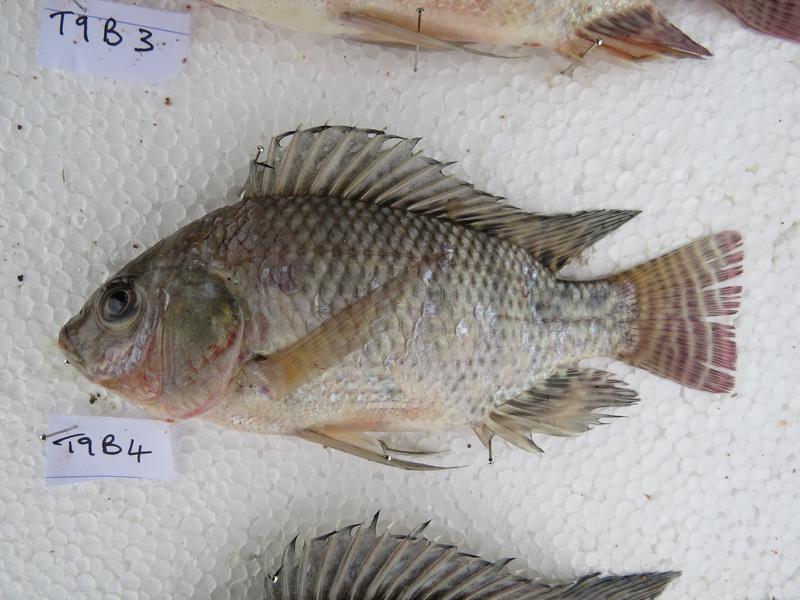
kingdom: Animalia
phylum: Chordata
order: Perciformes
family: Cichlidae
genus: Oreochromis
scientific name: Oreochromis niloticus
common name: Nile tilapia
